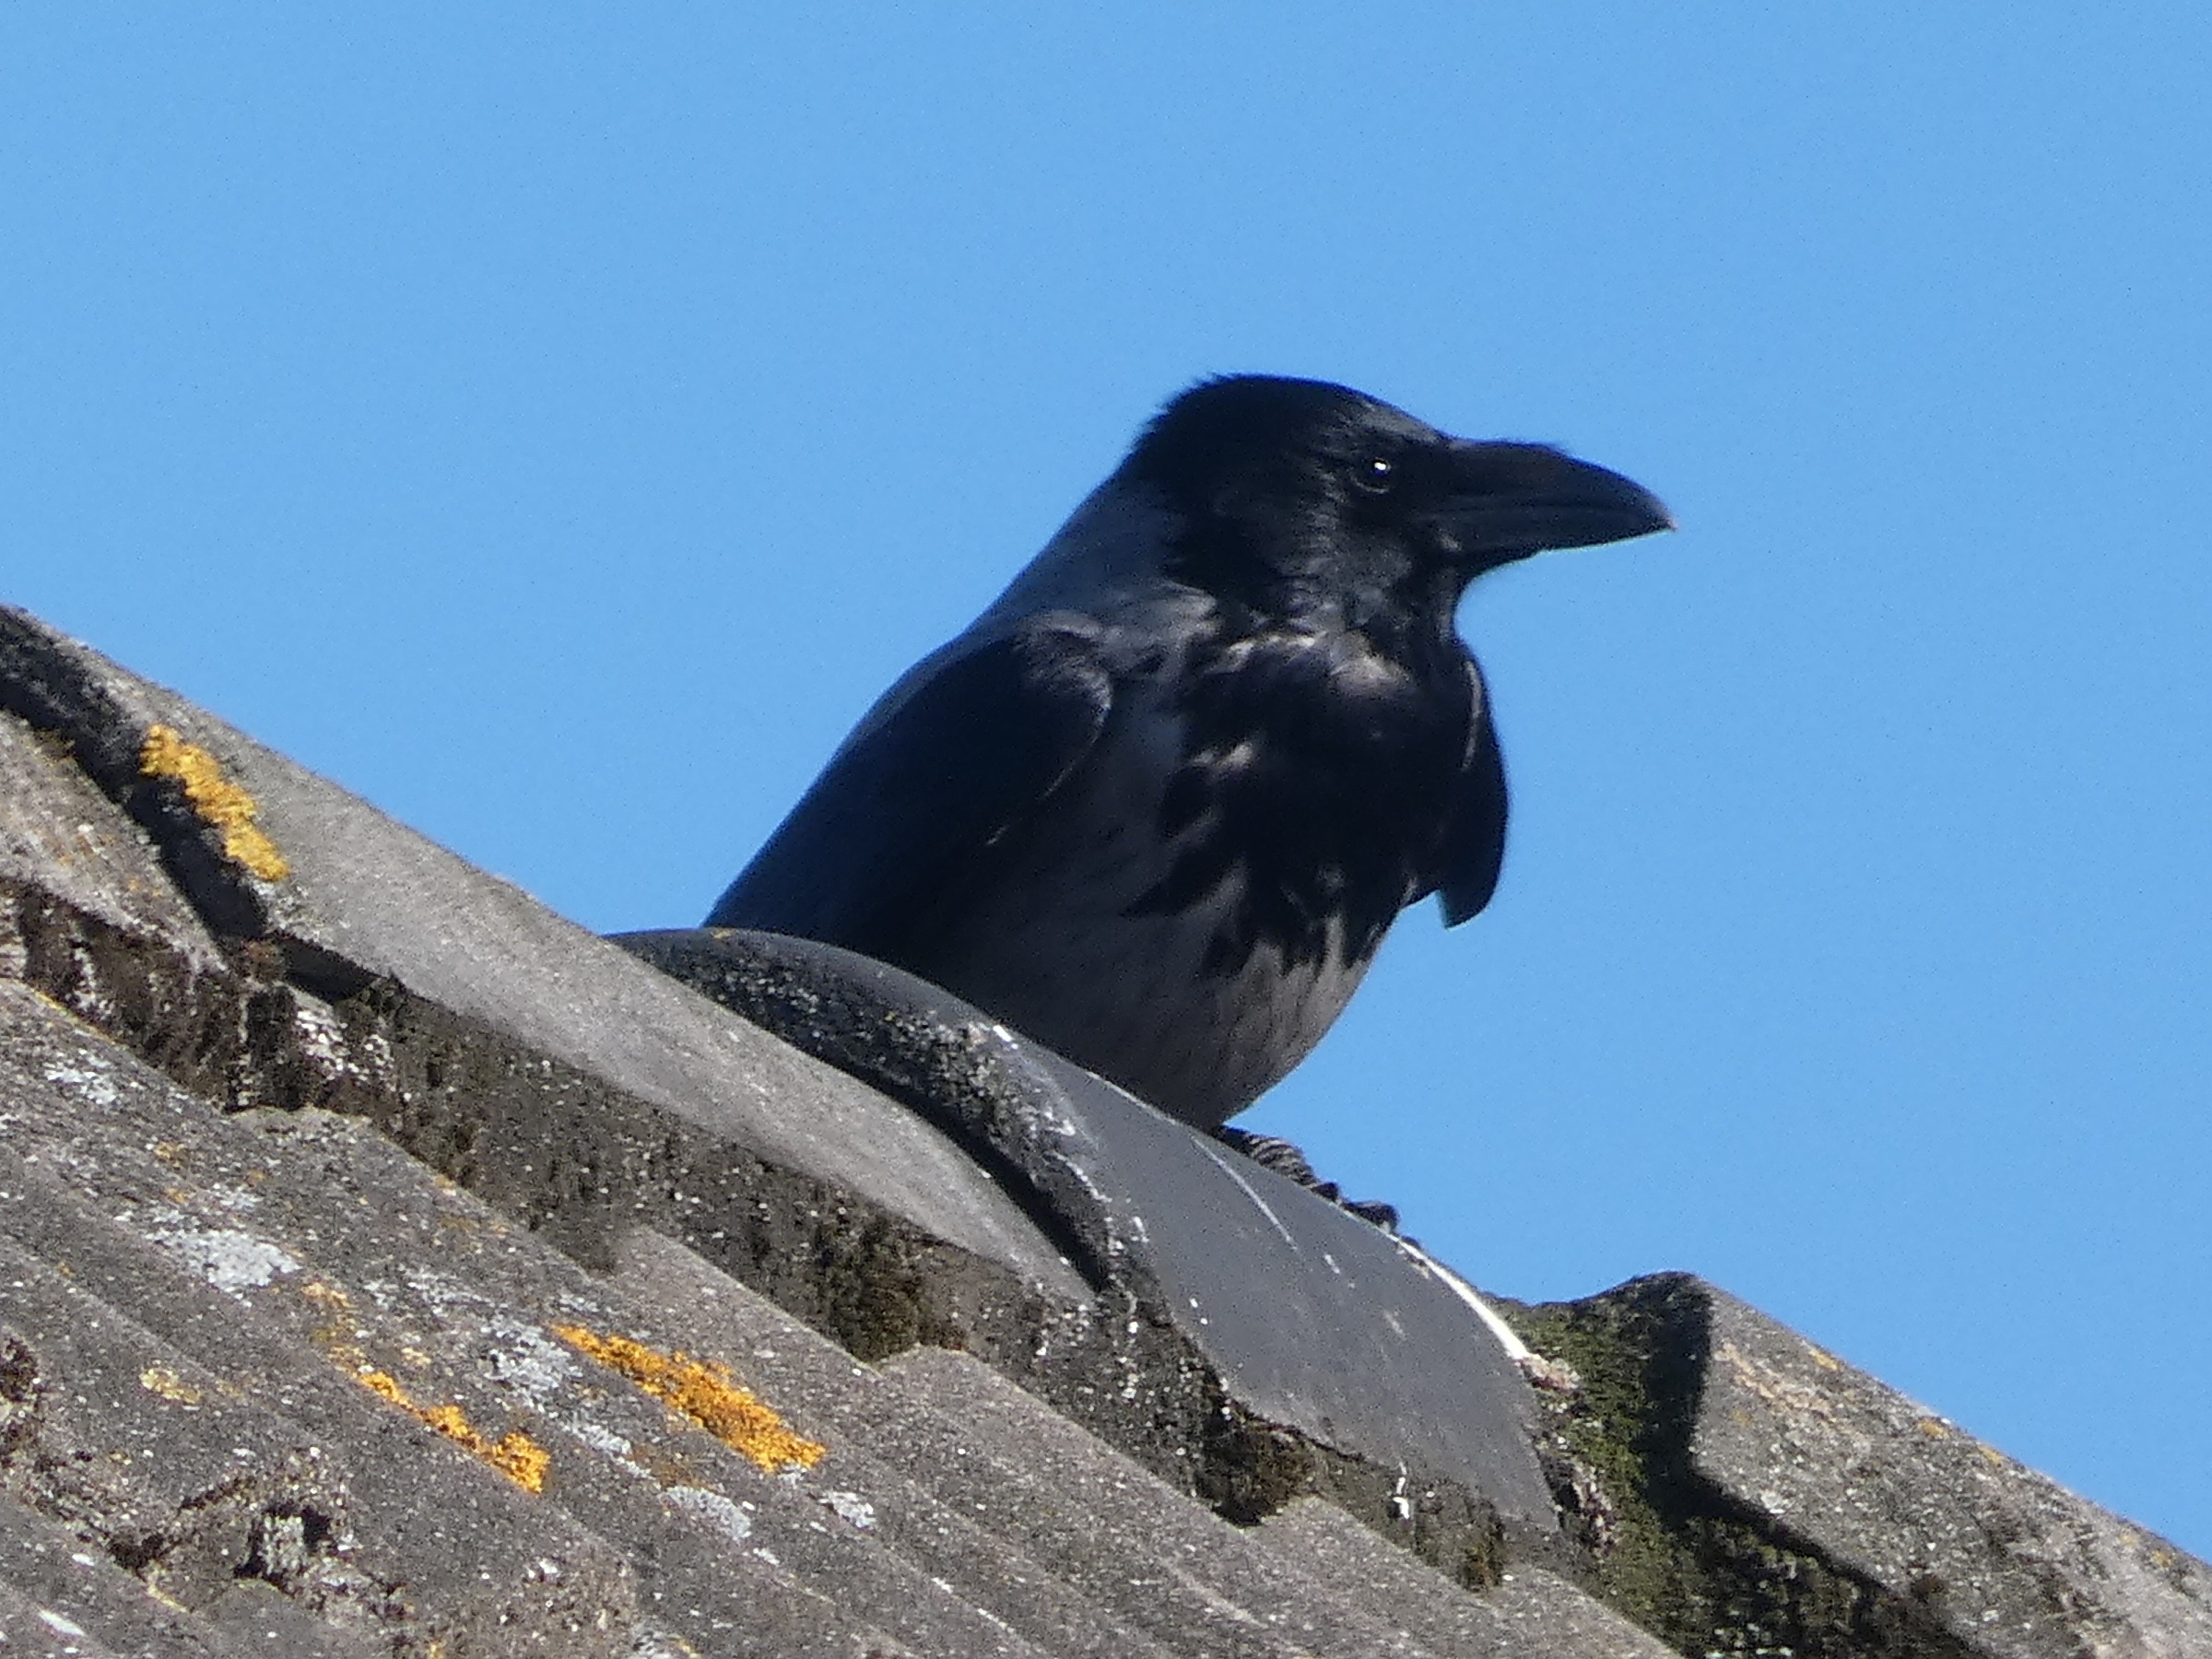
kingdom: Animalia
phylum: Chordata
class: Aves
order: Passeriformes
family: Corvidae
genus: Corvus
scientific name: Corvus cornix
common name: Gråkrage
